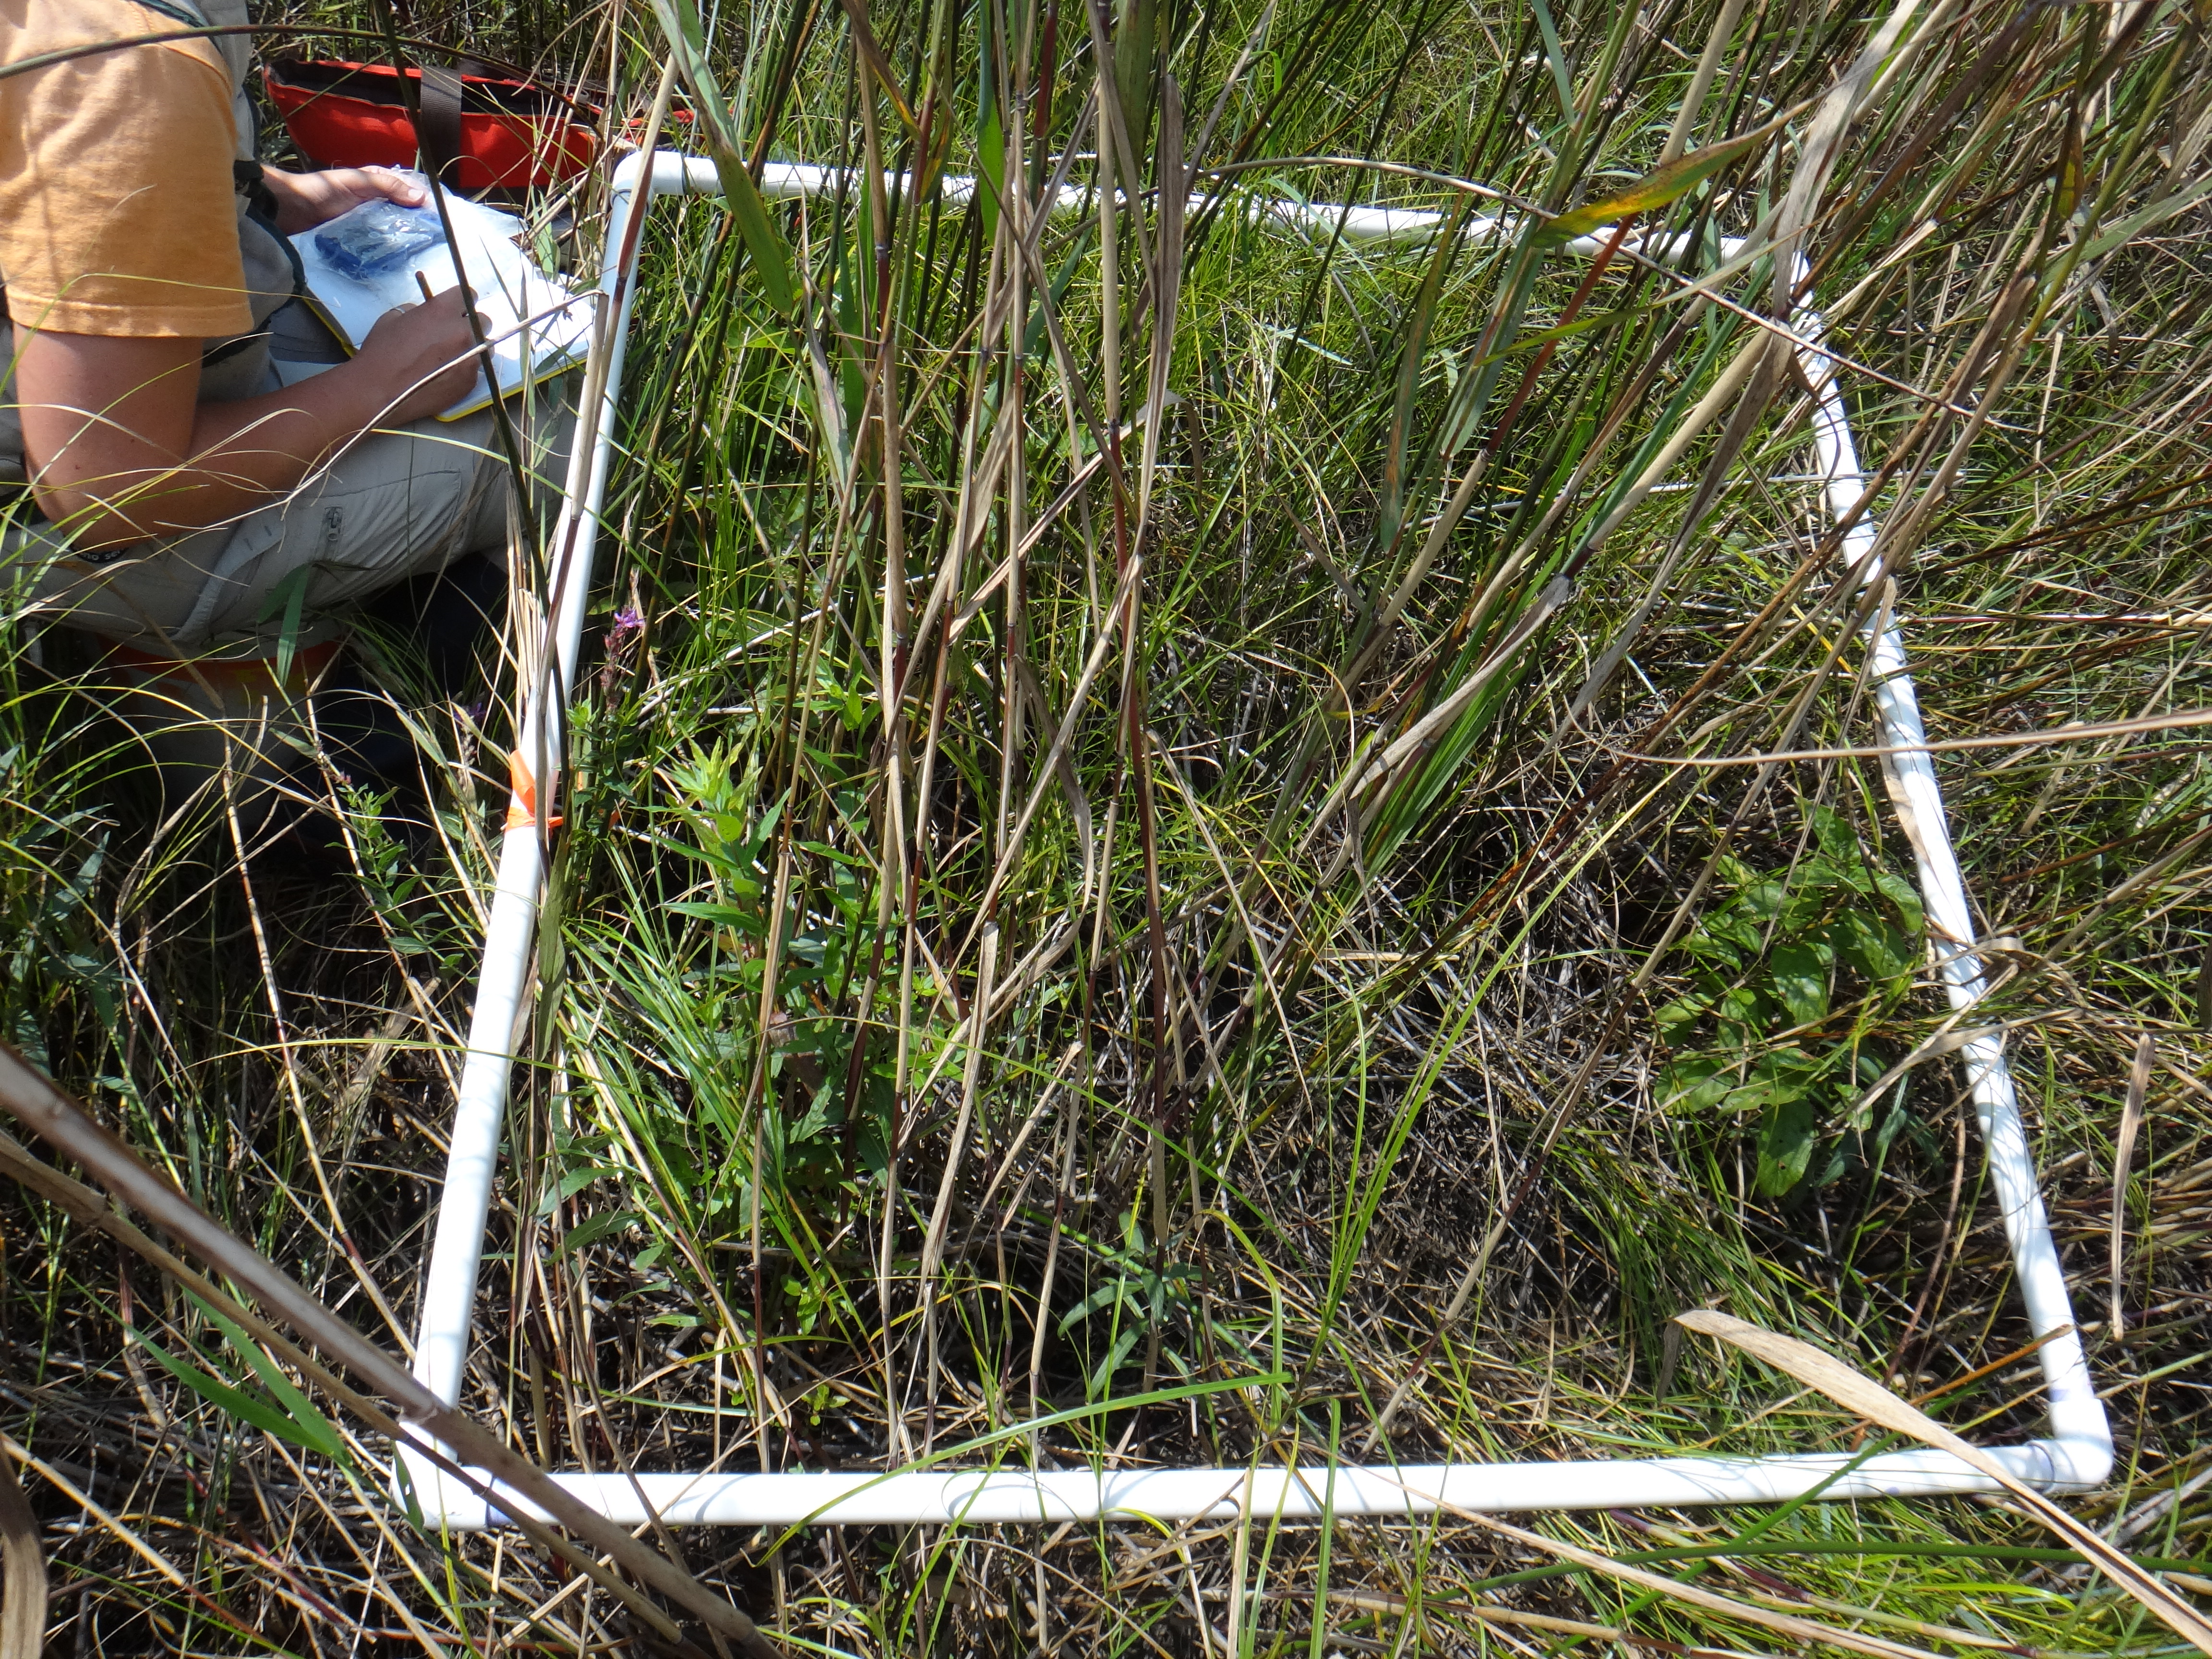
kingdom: Plantae
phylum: Tracheophyta
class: Magnoliopsida
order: Gentianales
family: Rubiaceae
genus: Cephalanthus
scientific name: Cephalanthus occidentalis
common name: Button-willow
